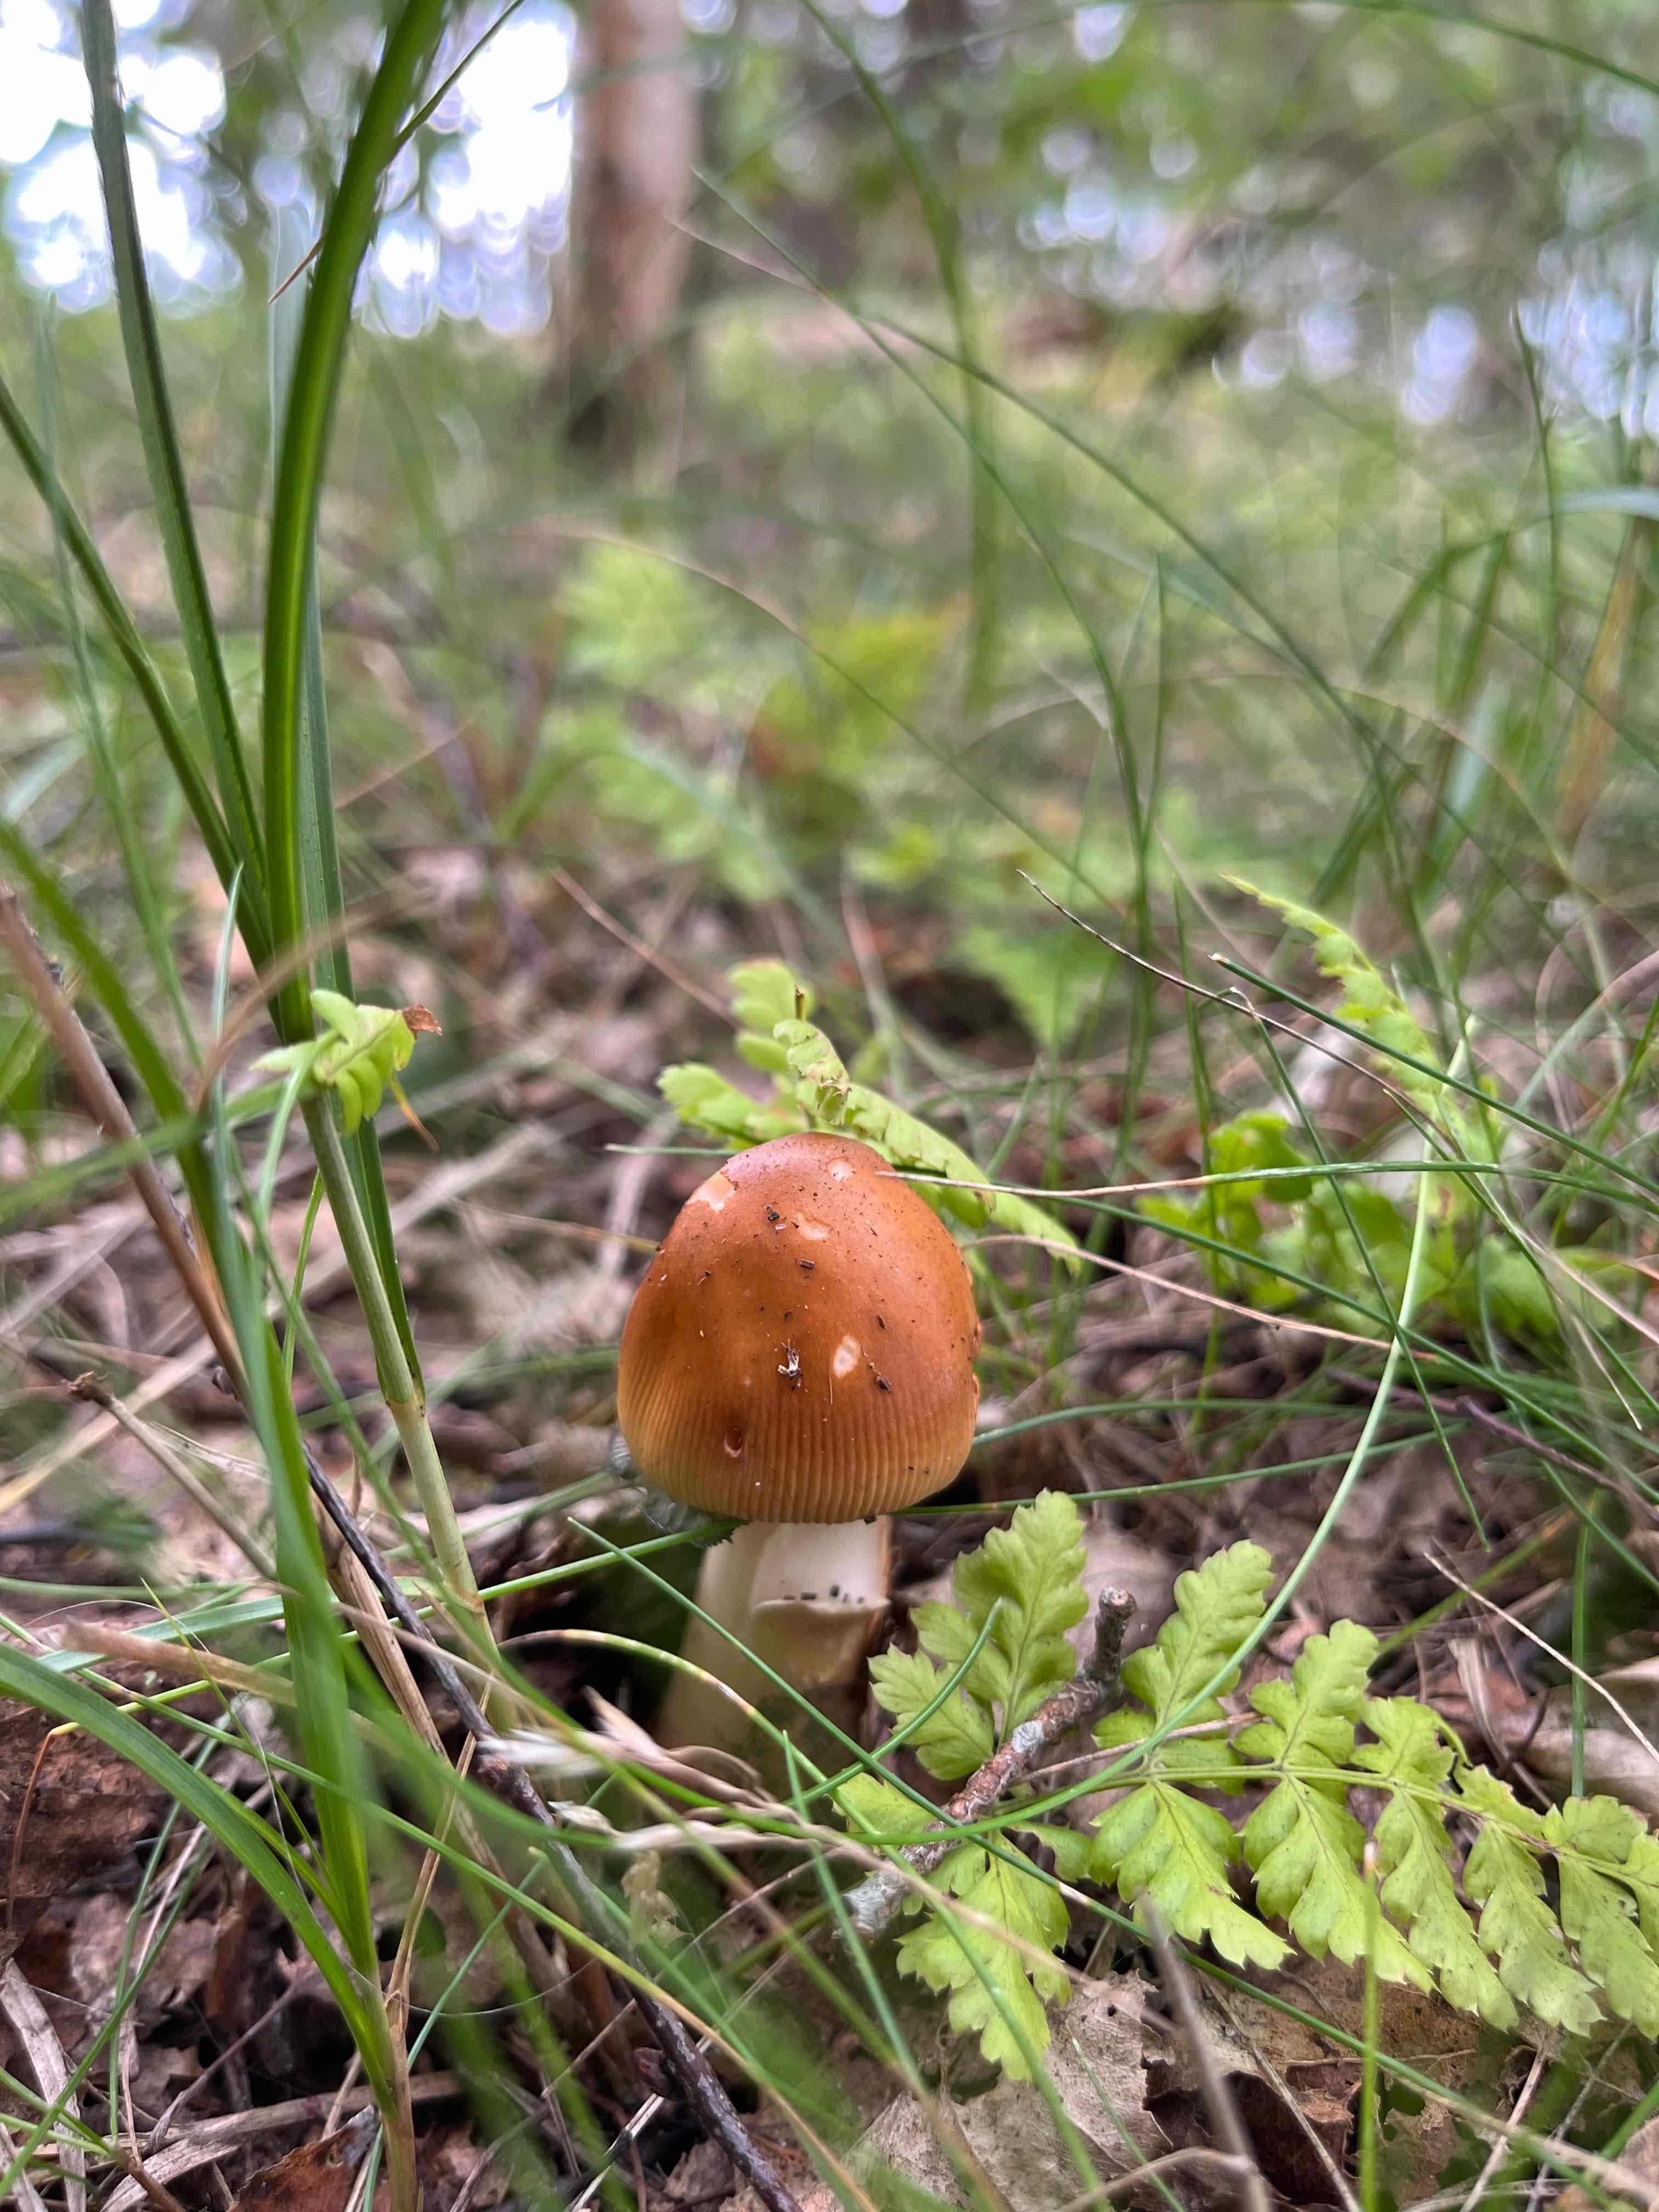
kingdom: Fungi
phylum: Basidiomycota
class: Agaricomycetes
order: Agaricales
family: Amanitaceae
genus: Amanita
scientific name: Amanita fulva
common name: brun kam-fluesvamp
